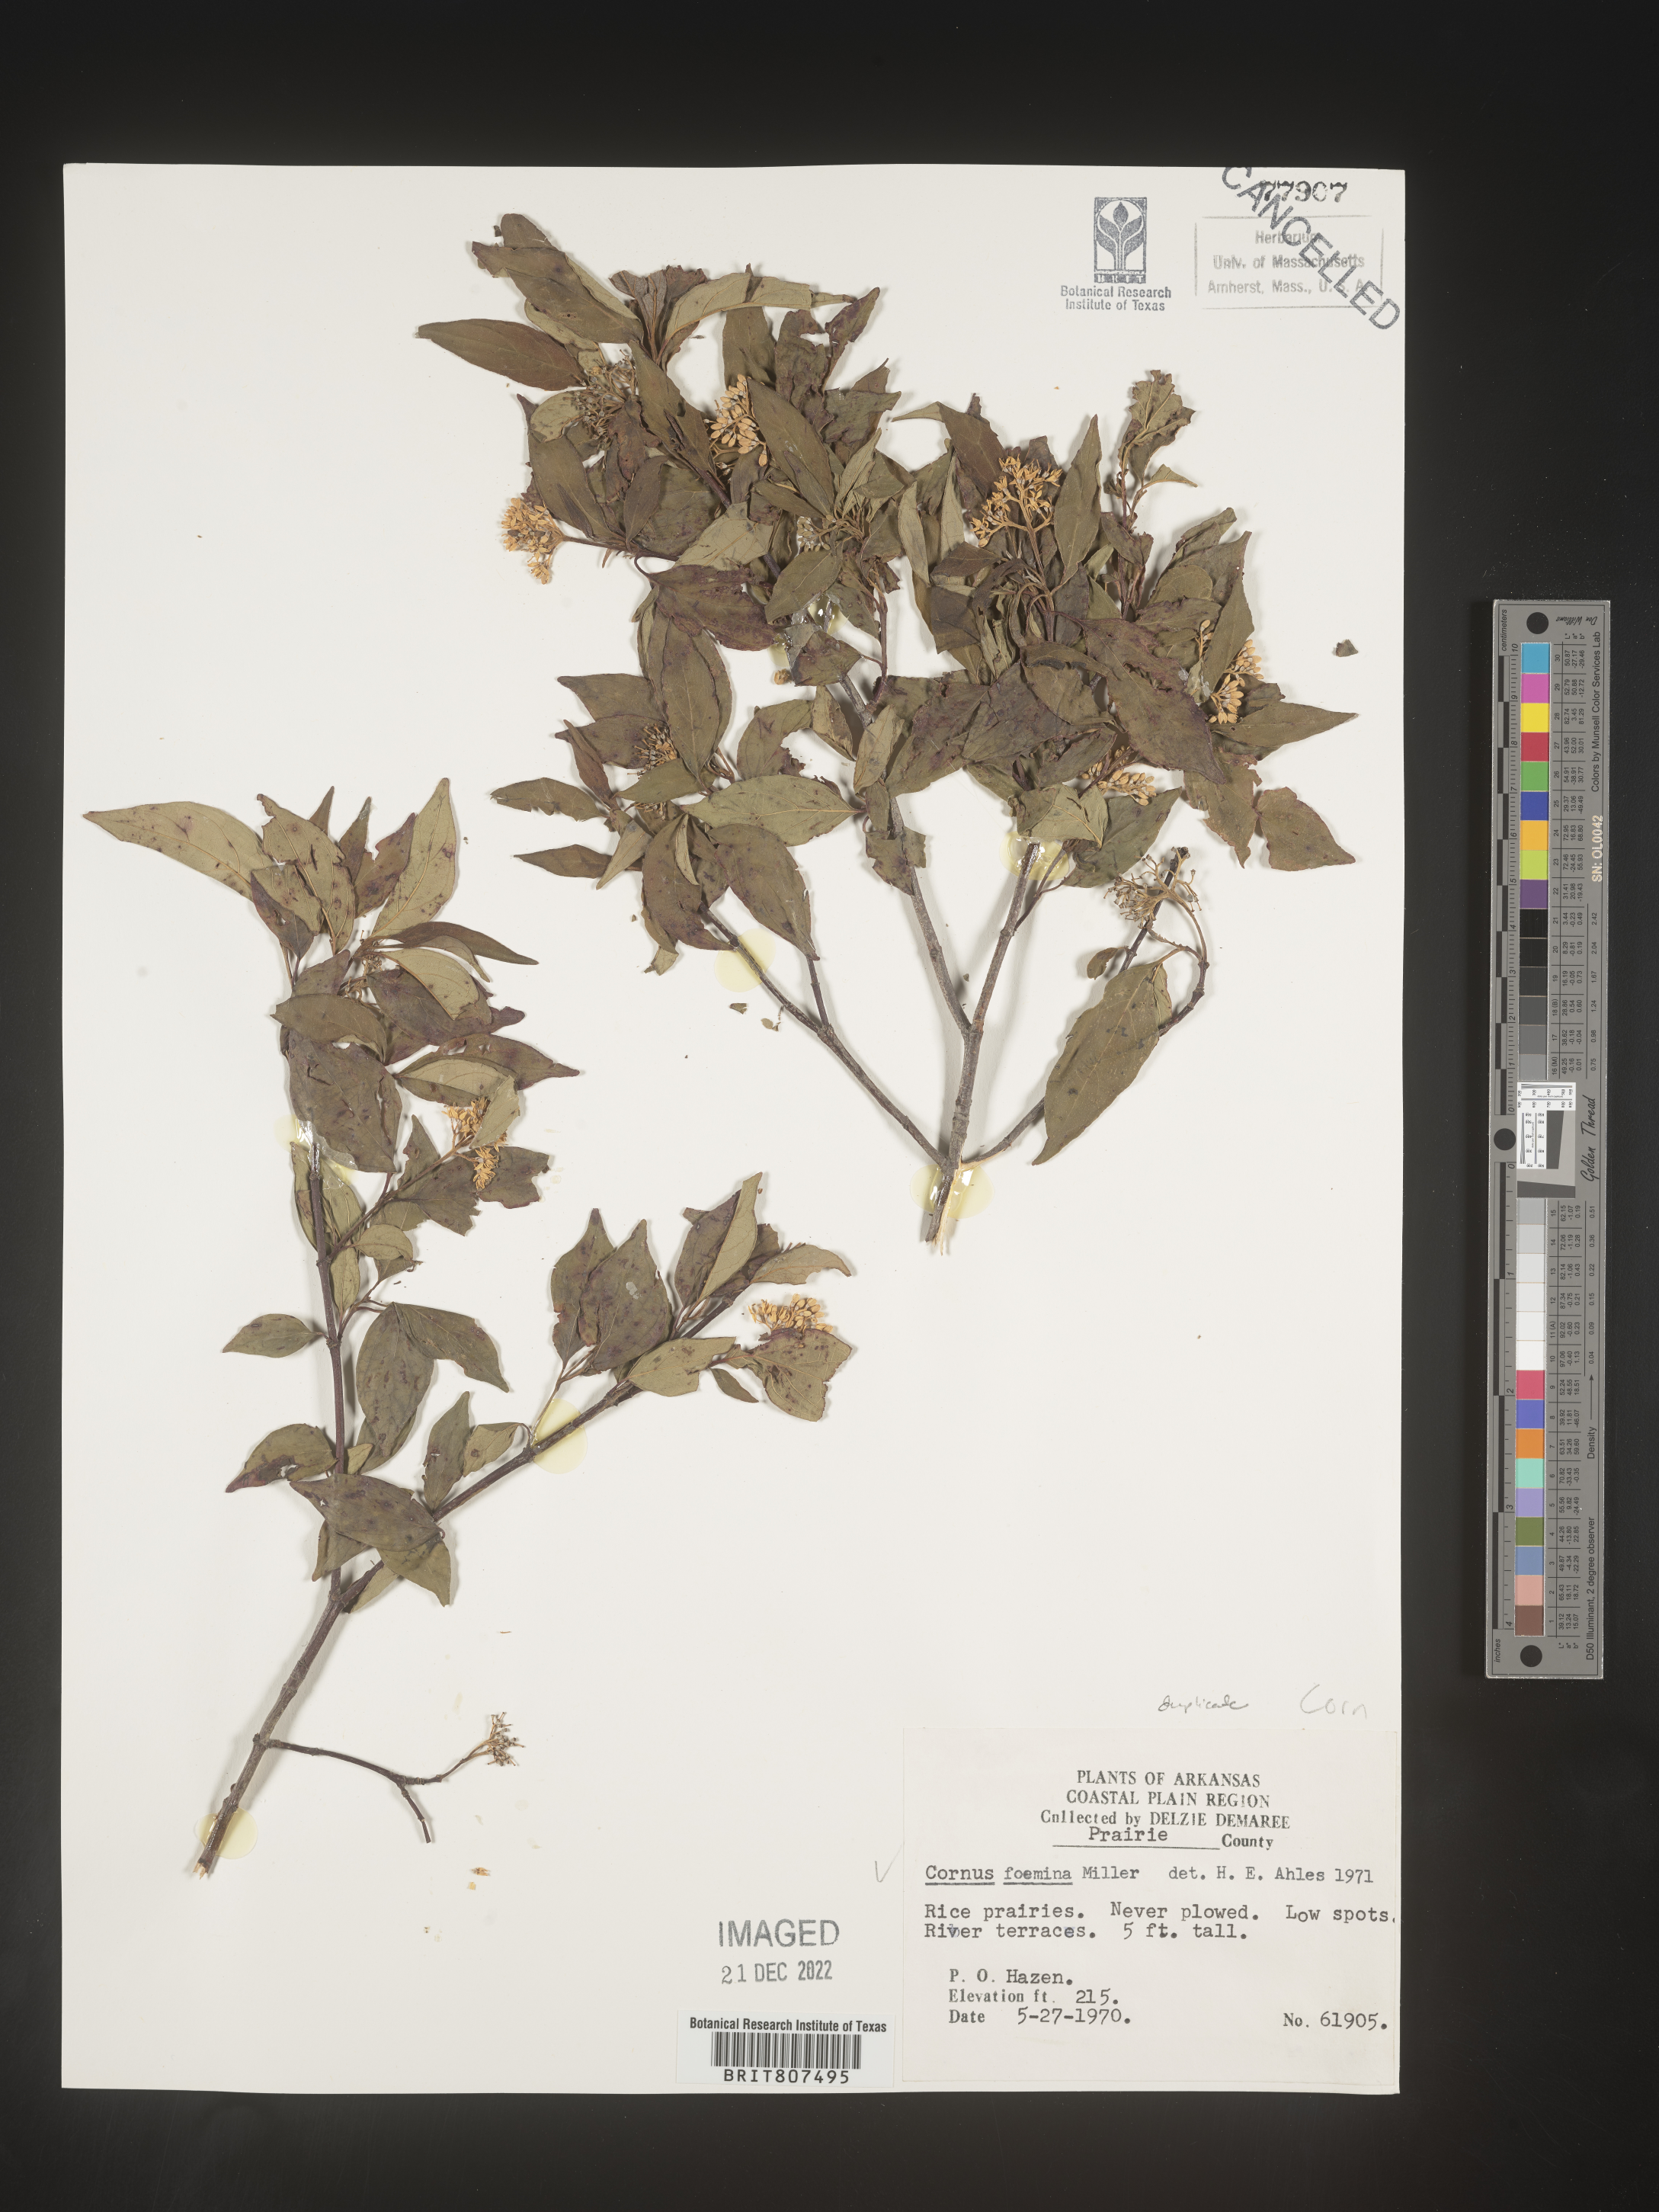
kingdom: Plantae
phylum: Tracheophyta
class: Magnoliopsida
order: Cornales
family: Cornaceae
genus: Cornus
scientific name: Cornus foemina
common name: Swamp dogwood
